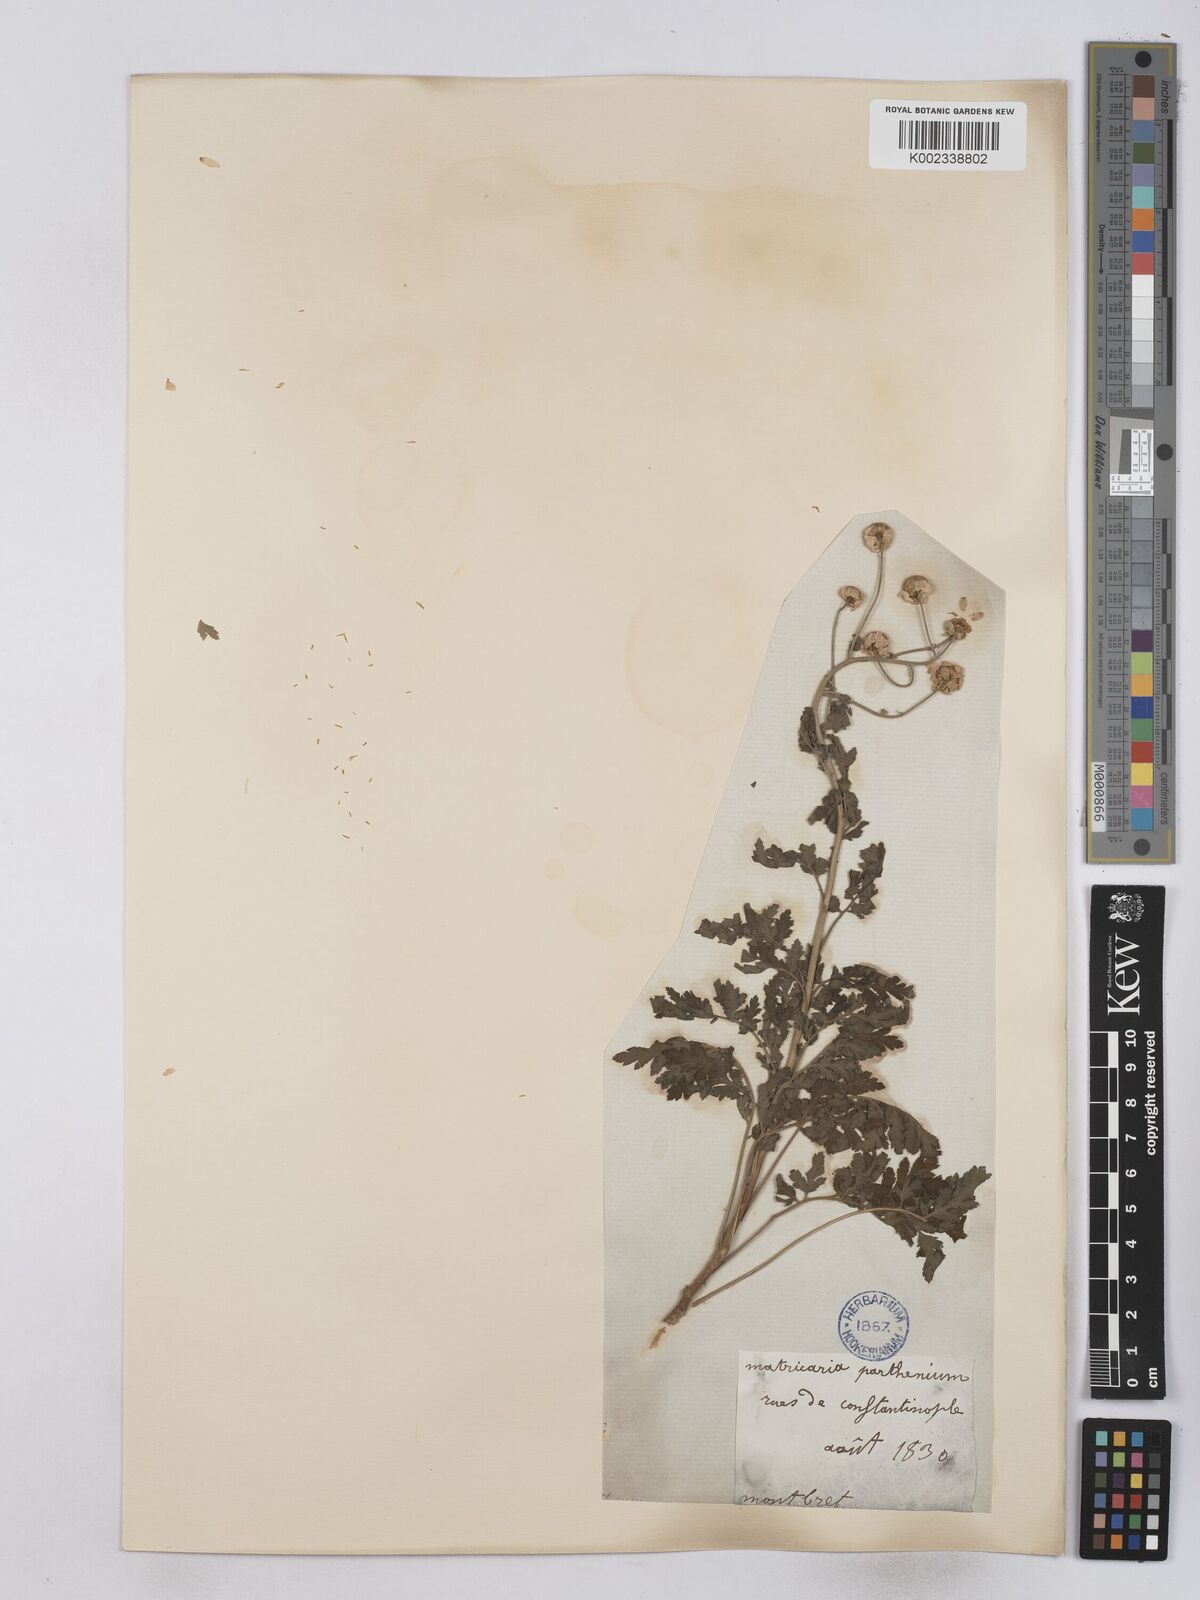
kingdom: Plantae
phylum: Tracheophyta
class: Magnoliopsida
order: Asterales
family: Asteraceae
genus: Tanacetum
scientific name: Tanacetum parthenium
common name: Feverfew
